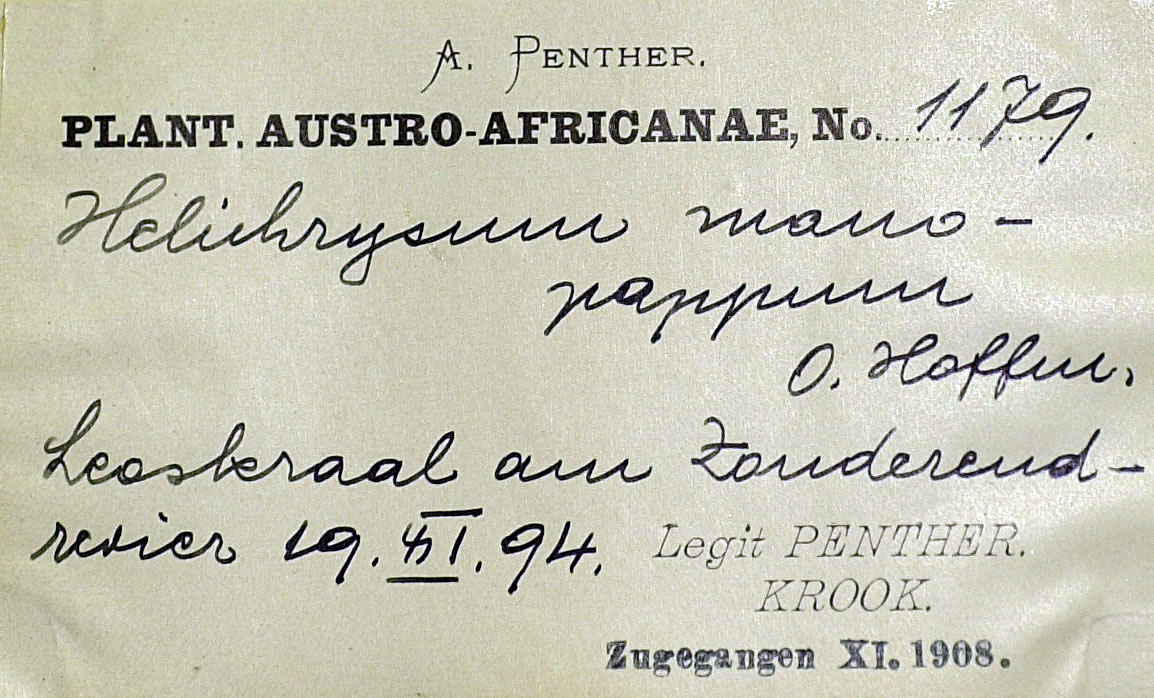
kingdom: Plantae
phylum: Tracheophyta
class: Magnoliopsida
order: Asterales
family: Asteraceae
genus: Helichrysum
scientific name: Helichrysum rutilans
